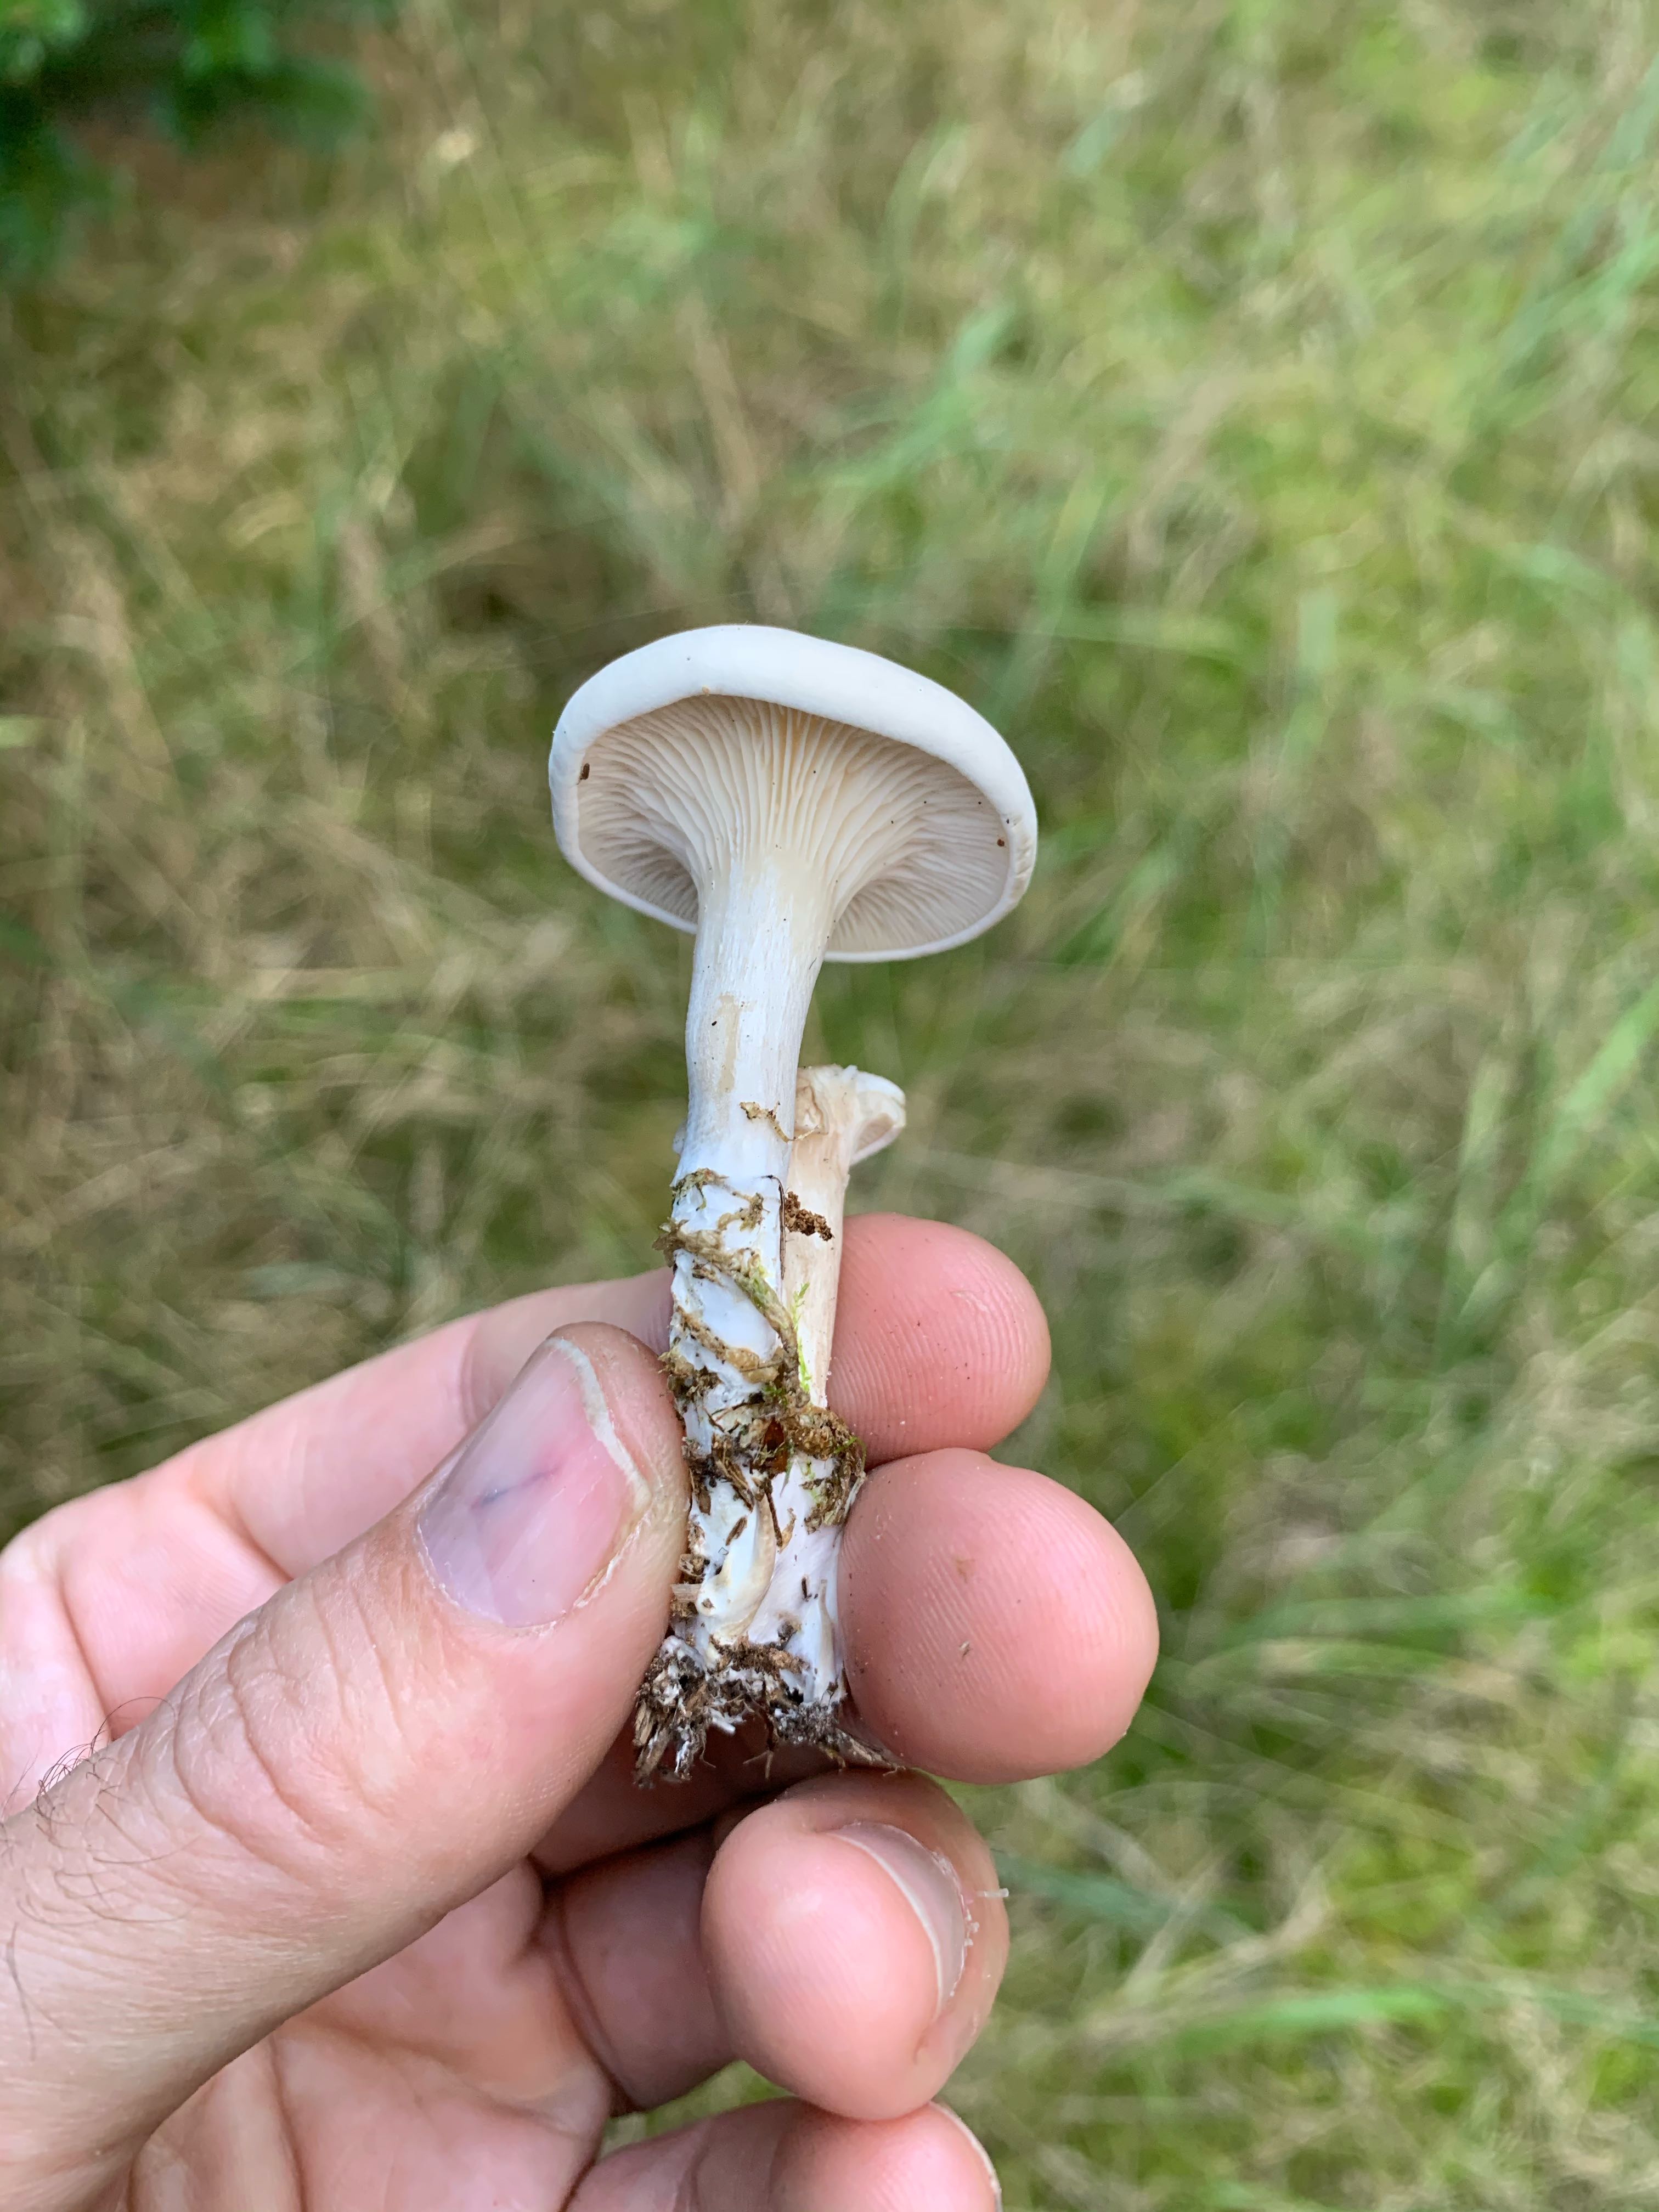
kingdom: Fungi
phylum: Basidiomycota
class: Agaricomycetes
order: Agaricales
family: Entolomataceae
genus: Clitopilus
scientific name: Clitopilus prunulus
